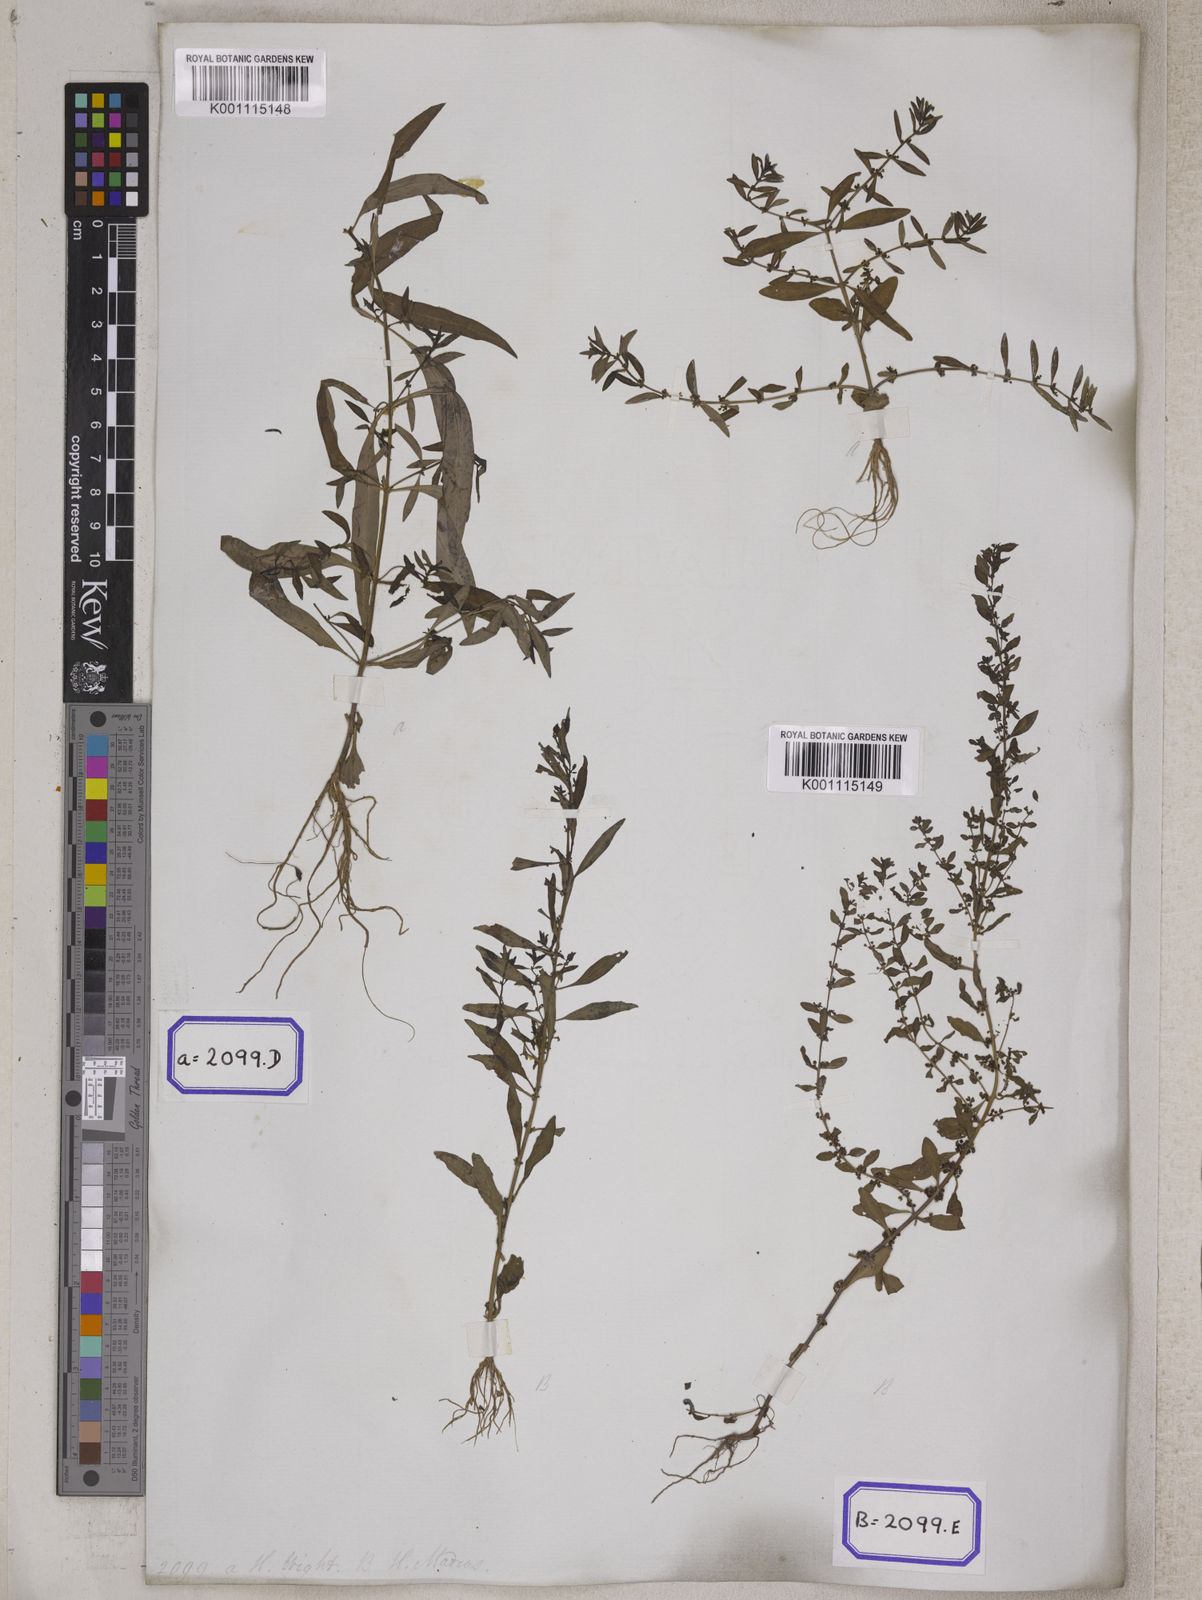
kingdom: Plantae
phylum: Tracheophyta
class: Magnoliopsida
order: Myrtales
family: Lythraceae
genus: Ammannia
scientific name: Ammannia baccifera
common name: Blistering ammania
